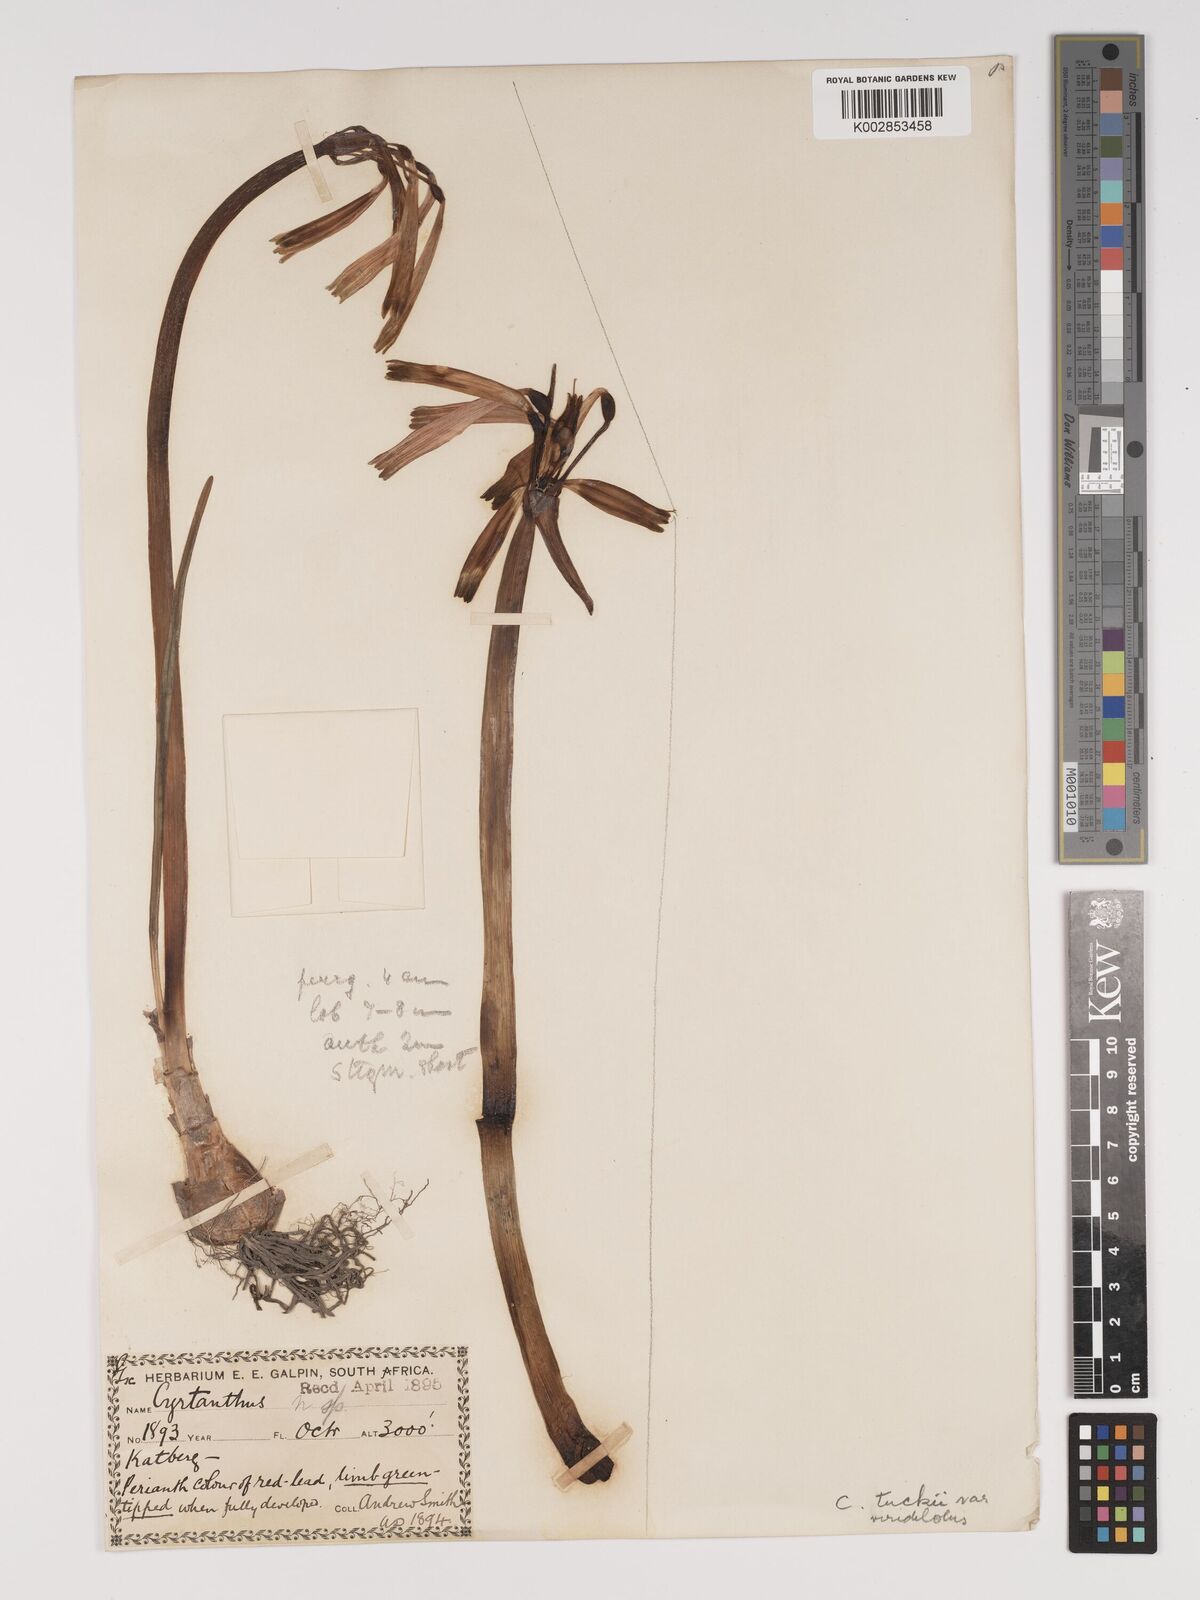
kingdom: Plantae
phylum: Tracheophyta
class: Liliopsida
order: Asparagales
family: Amaryllidaceae
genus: Cyrtanthus
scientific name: Cyrtanthus tuckii
